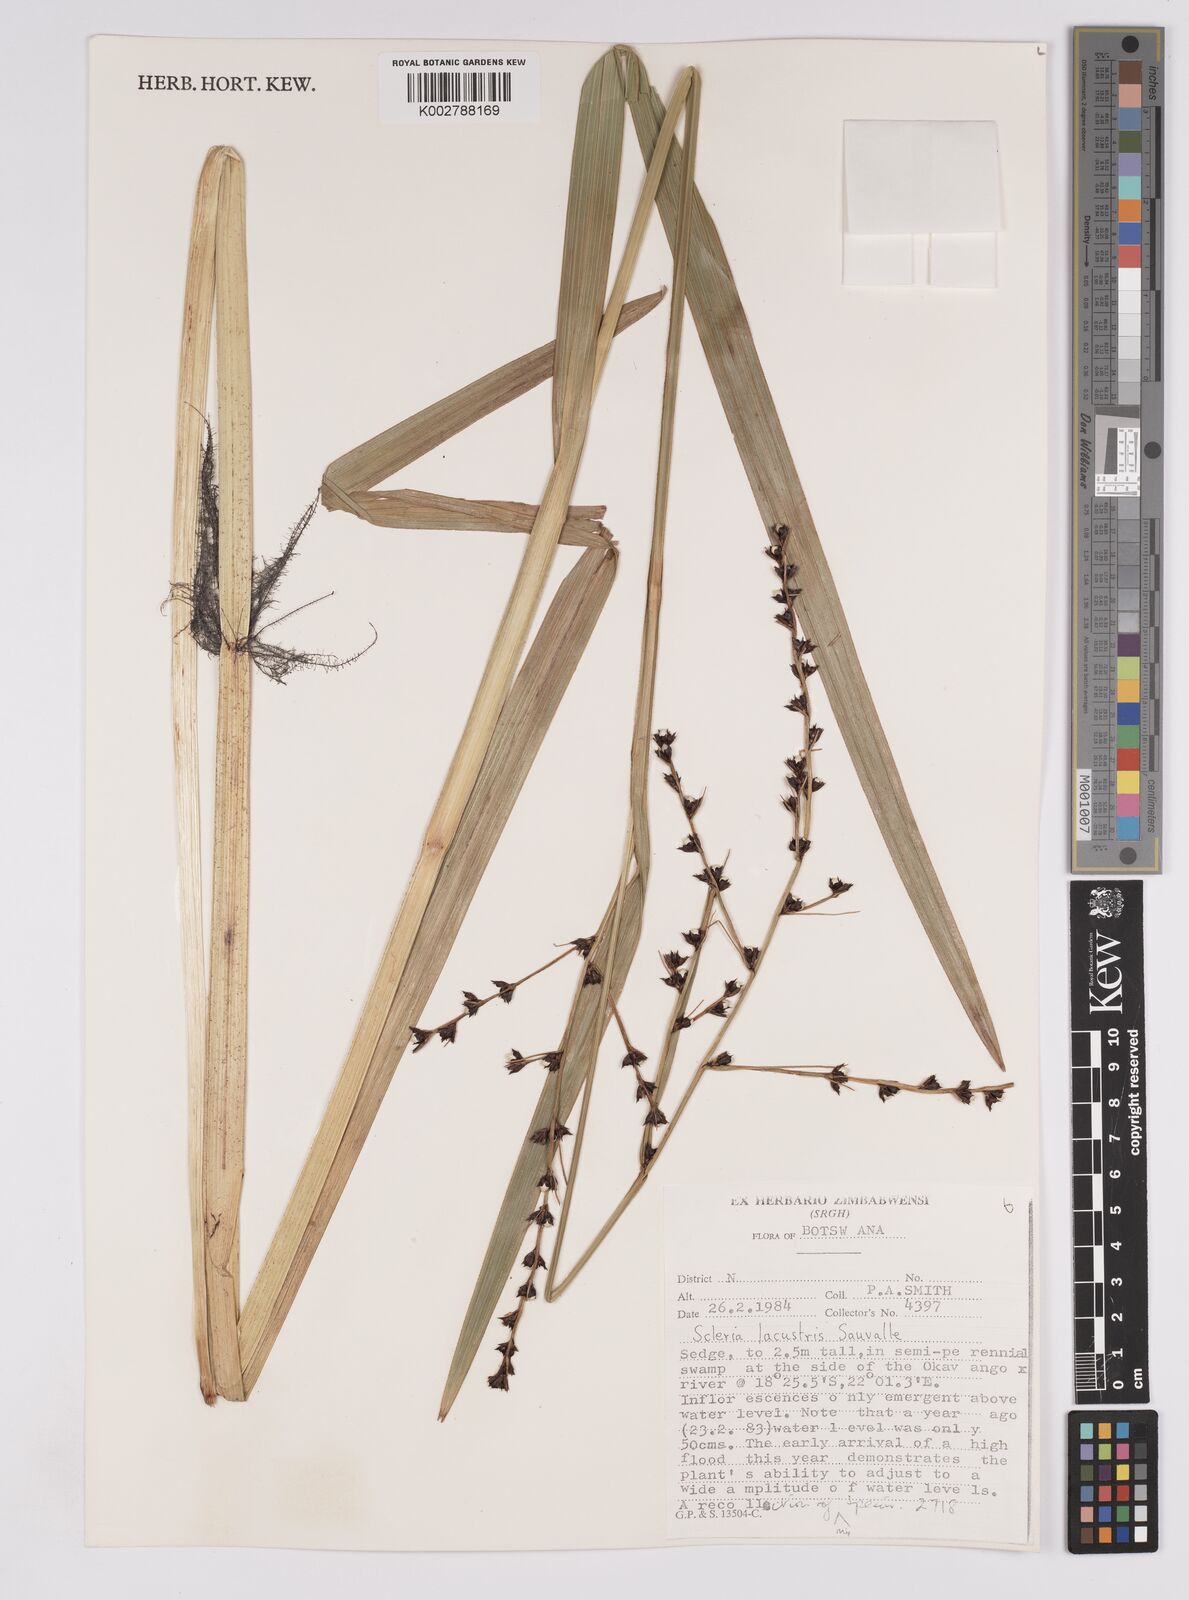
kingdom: Plantae
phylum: Tracheophyta
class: Liliopsida
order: Poales
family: Cyperaceae
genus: Scleria
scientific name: Scleria lacustris
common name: Lakeshore nutrush
